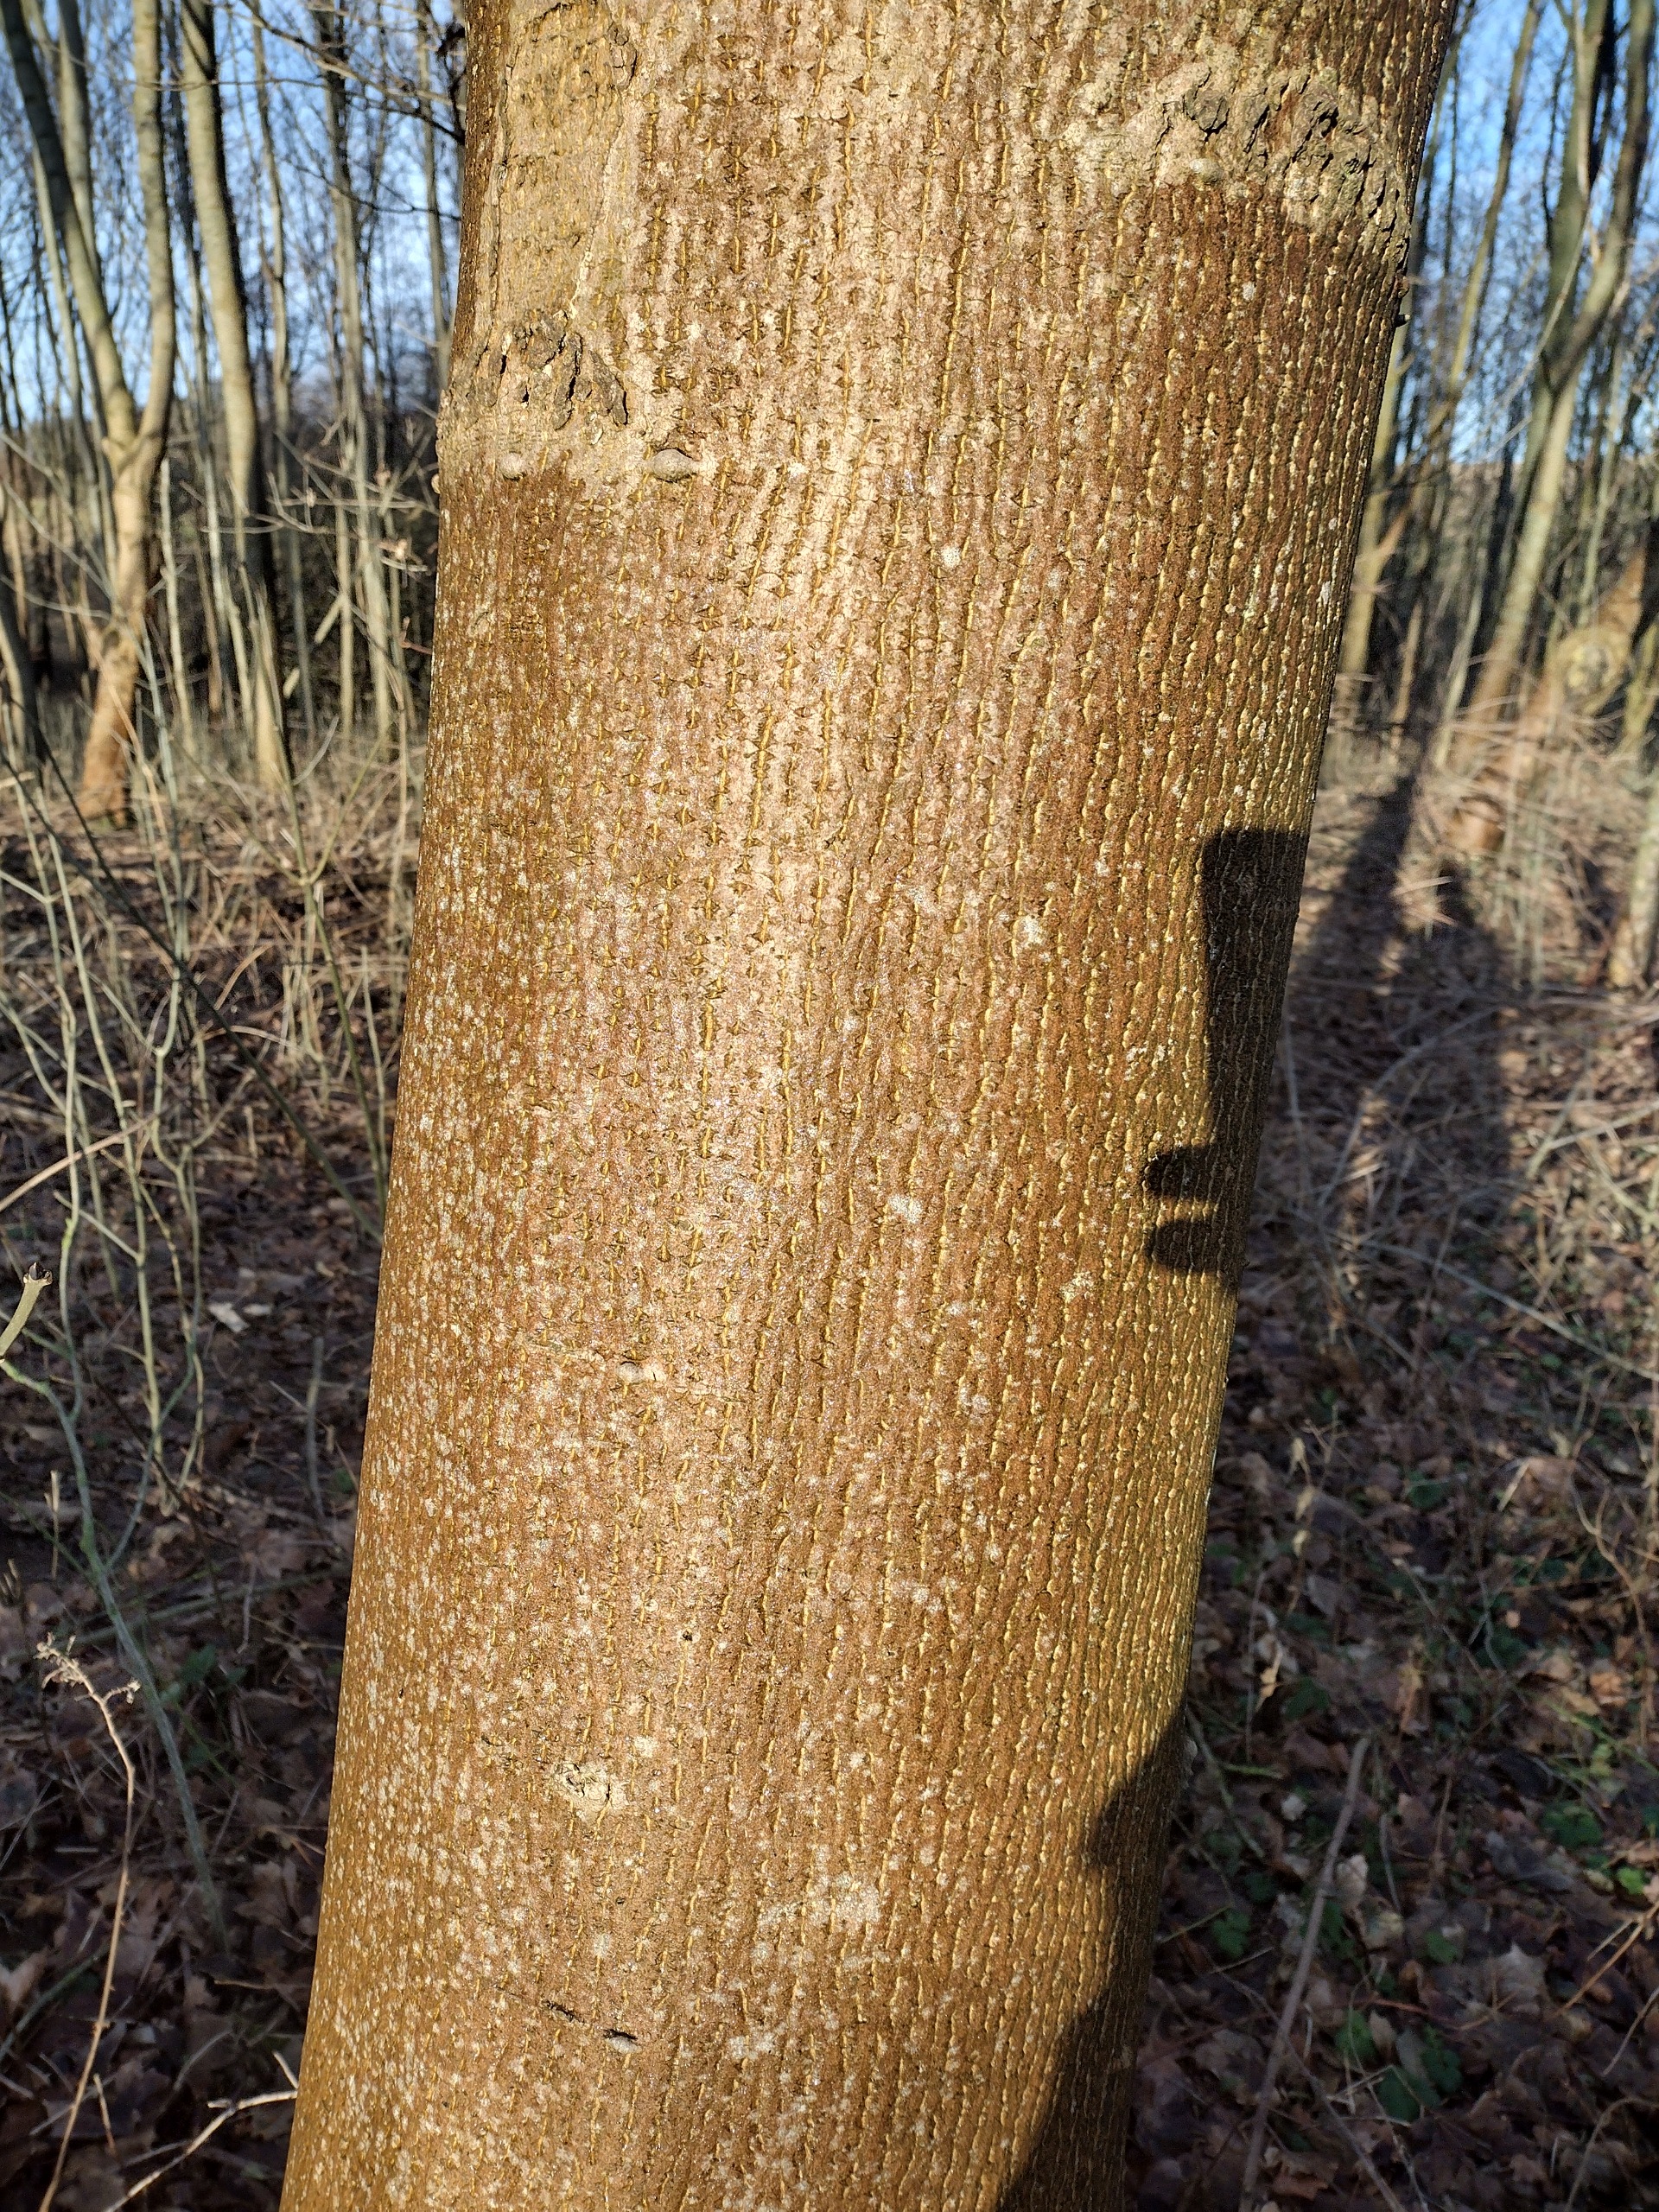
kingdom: Plantae
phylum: Tracheophyta
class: Magnoliopsida
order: Sapindales
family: Sapindaceae
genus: Acer
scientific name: Acer platanoides
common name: Spids-løn
